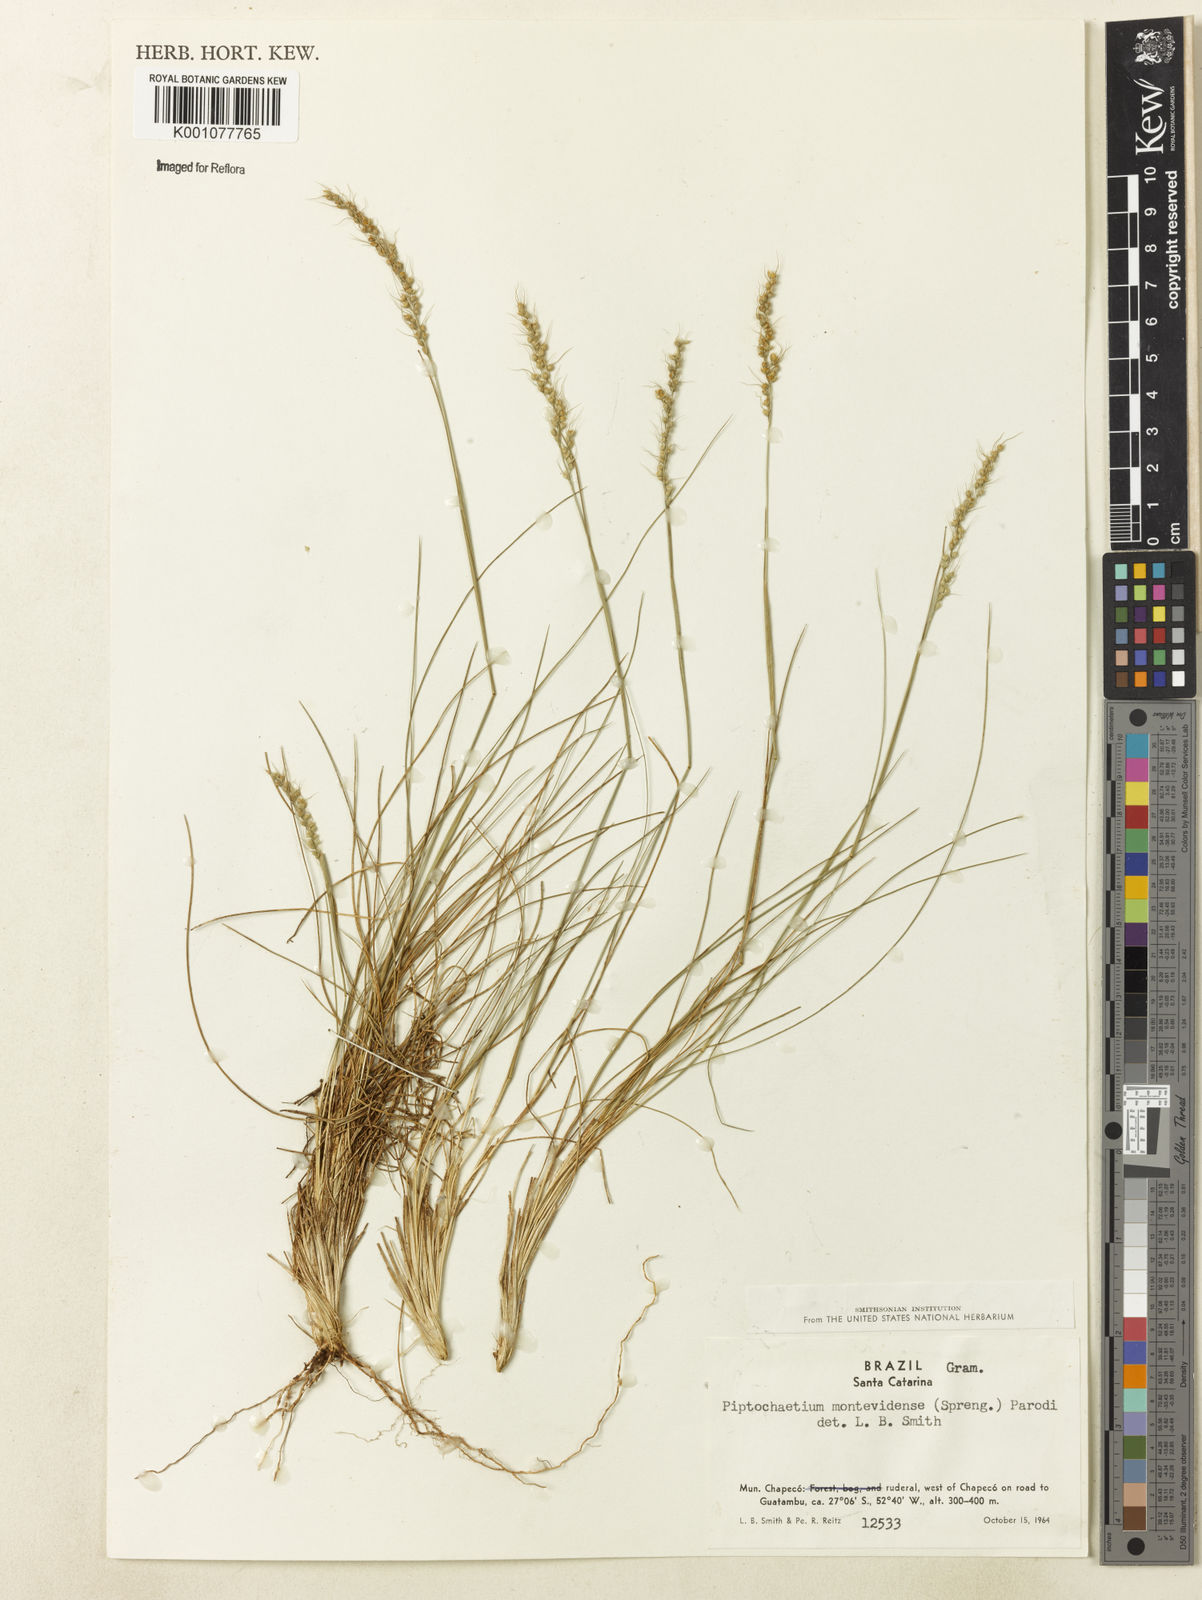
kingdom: Plantae
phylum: Tracheophyta
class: Liliopsida
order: Poales
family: Poaceae
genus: Piptochaetium
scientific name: Piptochaetium montevidense
